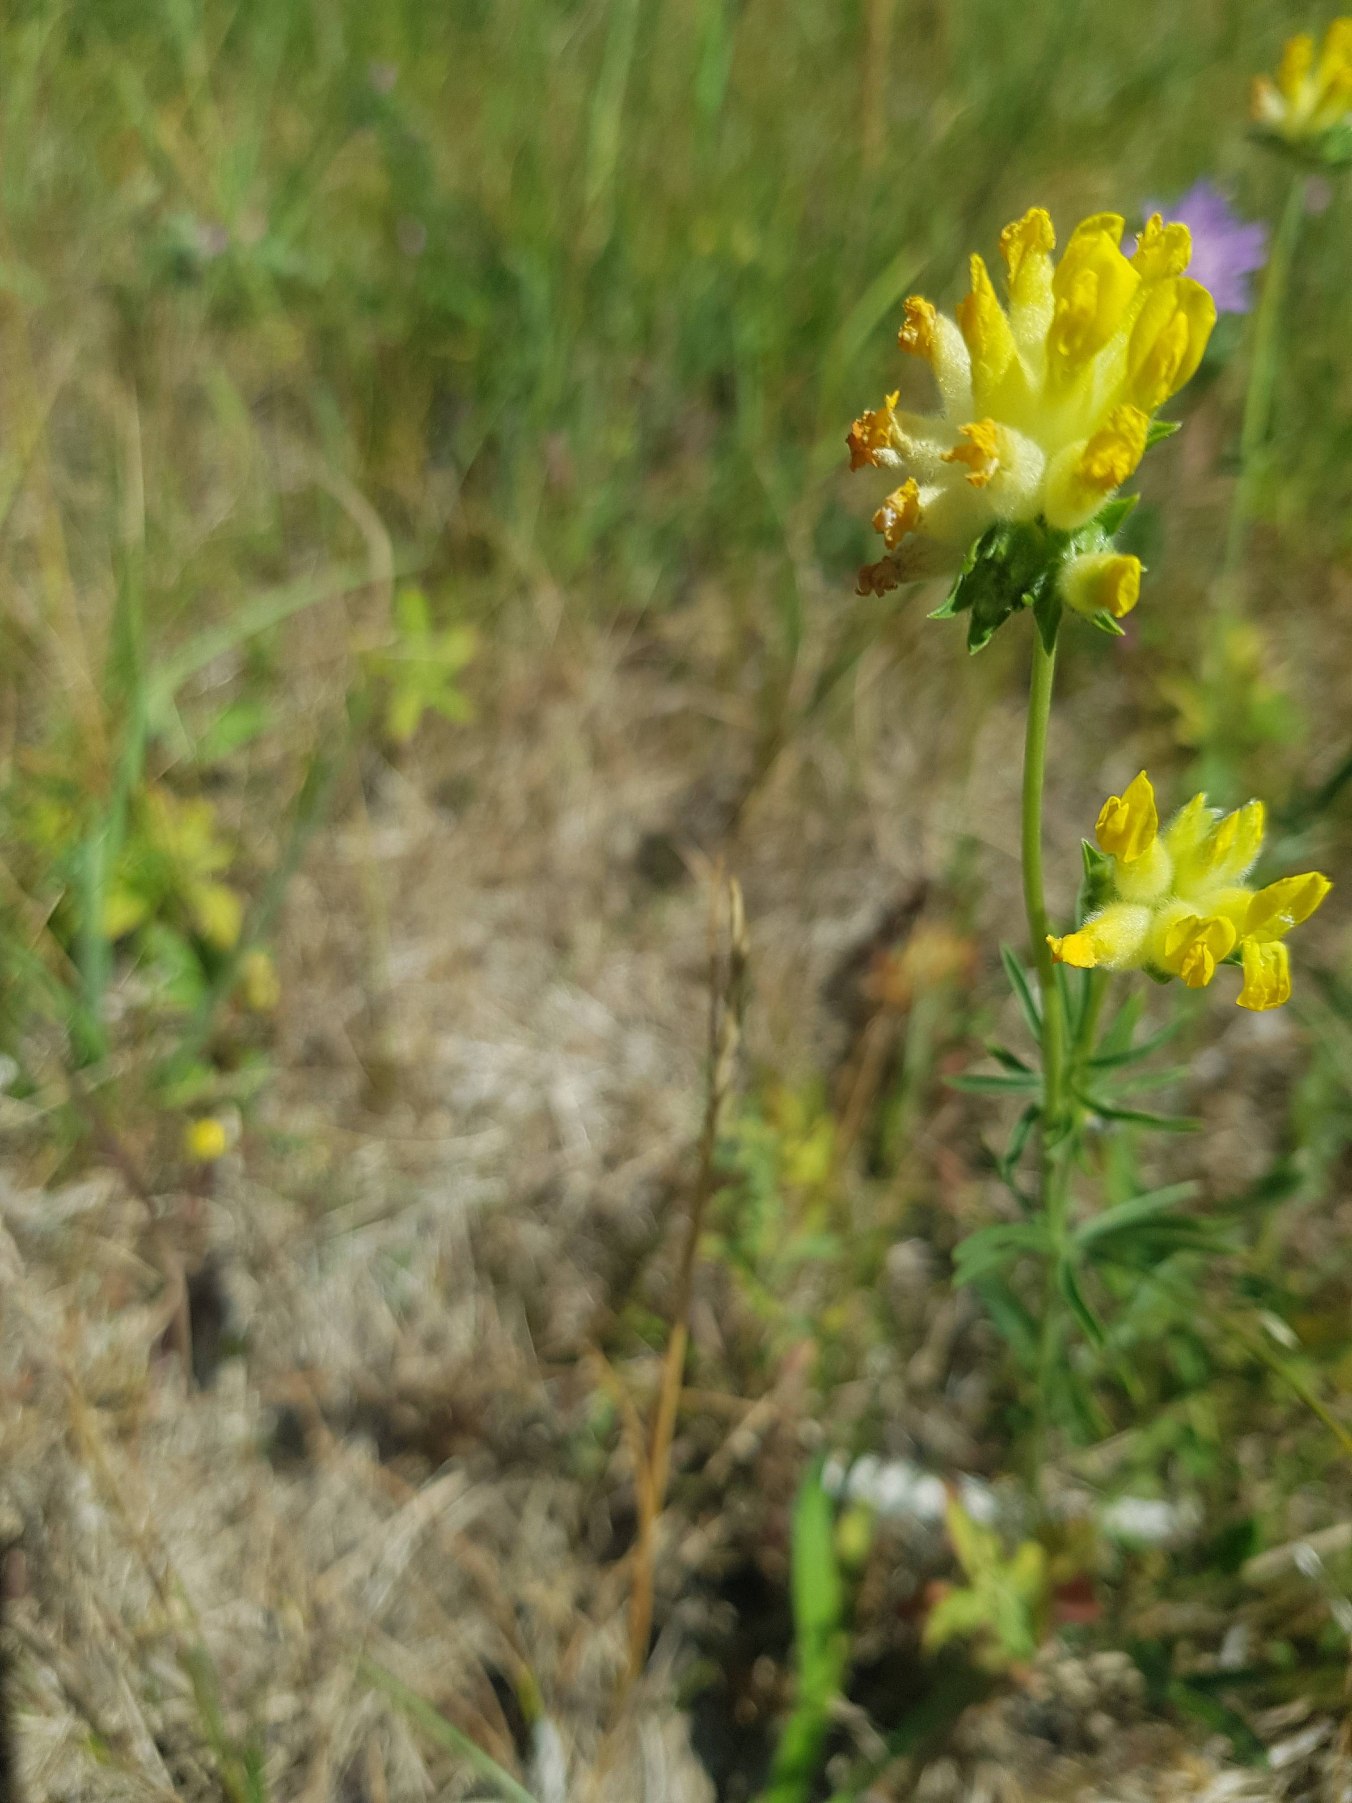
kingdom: Plantae
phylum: Tracheophyta
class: Magnoliopsida
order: Fabales
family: Fabaceae
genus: Anthyllis
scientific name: Anthyllis vulneraria
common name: Rundbælg
